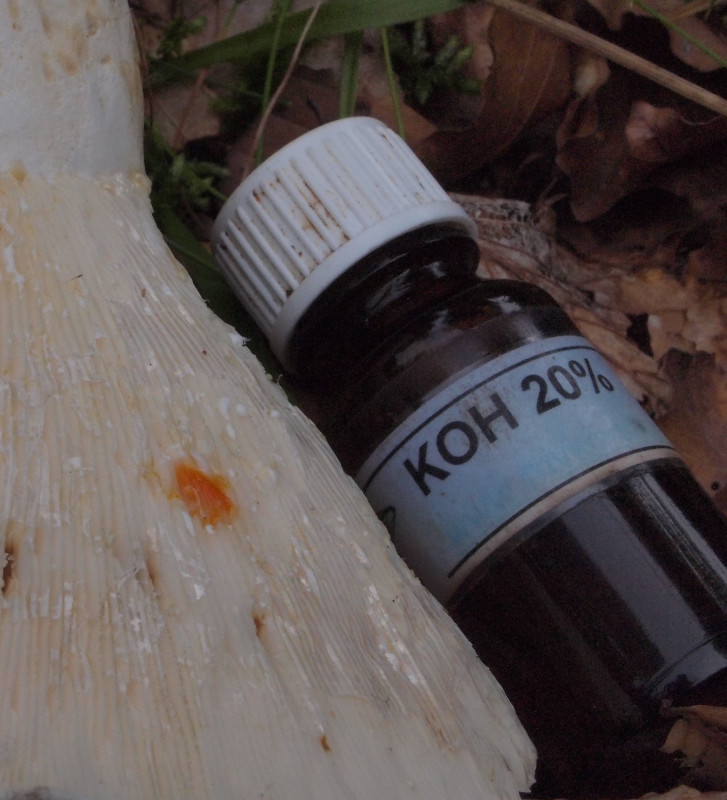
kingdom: Fungi
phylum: Basidiomycota
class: Agaricomycetes
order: Russulales
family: Russulaceae
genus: Lactifluus
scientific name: Lactifluus piperatus
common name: peber-mælkehat
